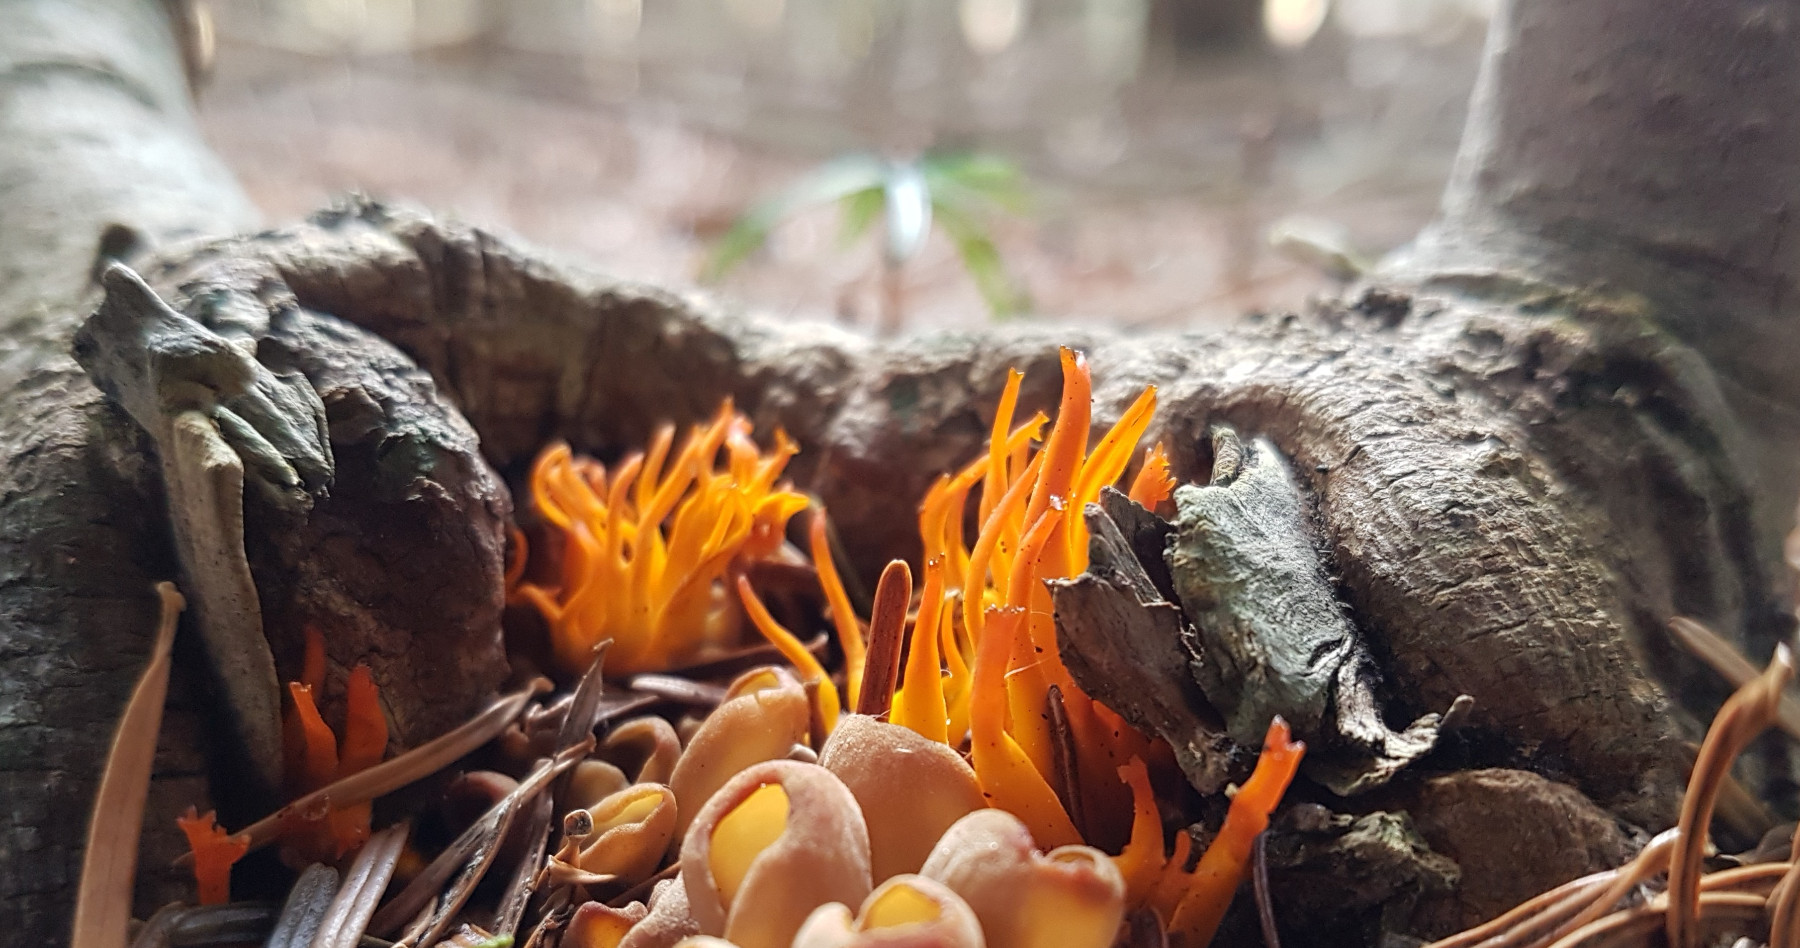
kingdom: Fungi
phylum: Basidiomycota
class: Dacrymycetes
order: Dacrymycetales
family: Dacrymycetaceae
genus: Calocera
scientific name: Calocera viscosa
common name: almindelig guldgaffel
